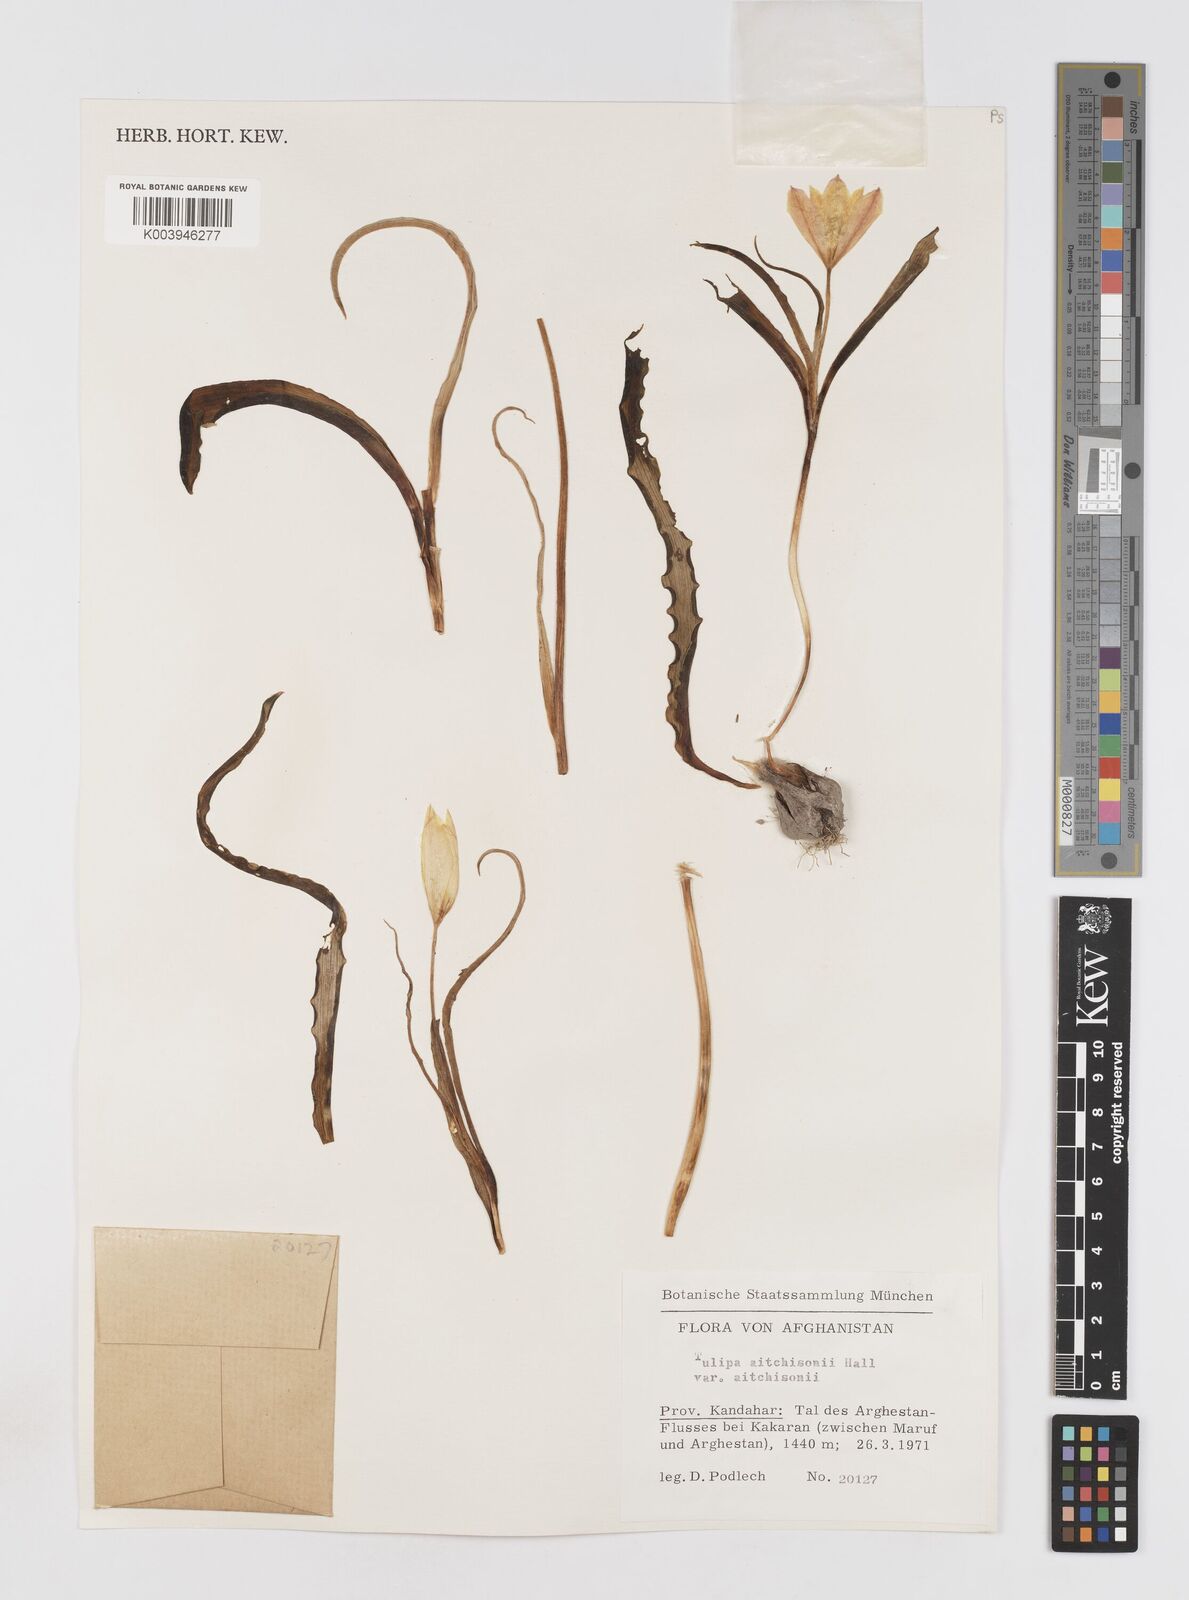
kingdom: Plantae
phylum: Tracheophyta
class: Liliopsida
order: Liliales
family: Liliaceae
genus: Tulipa
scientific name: Tulipa clusiana
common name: Lady tulip
